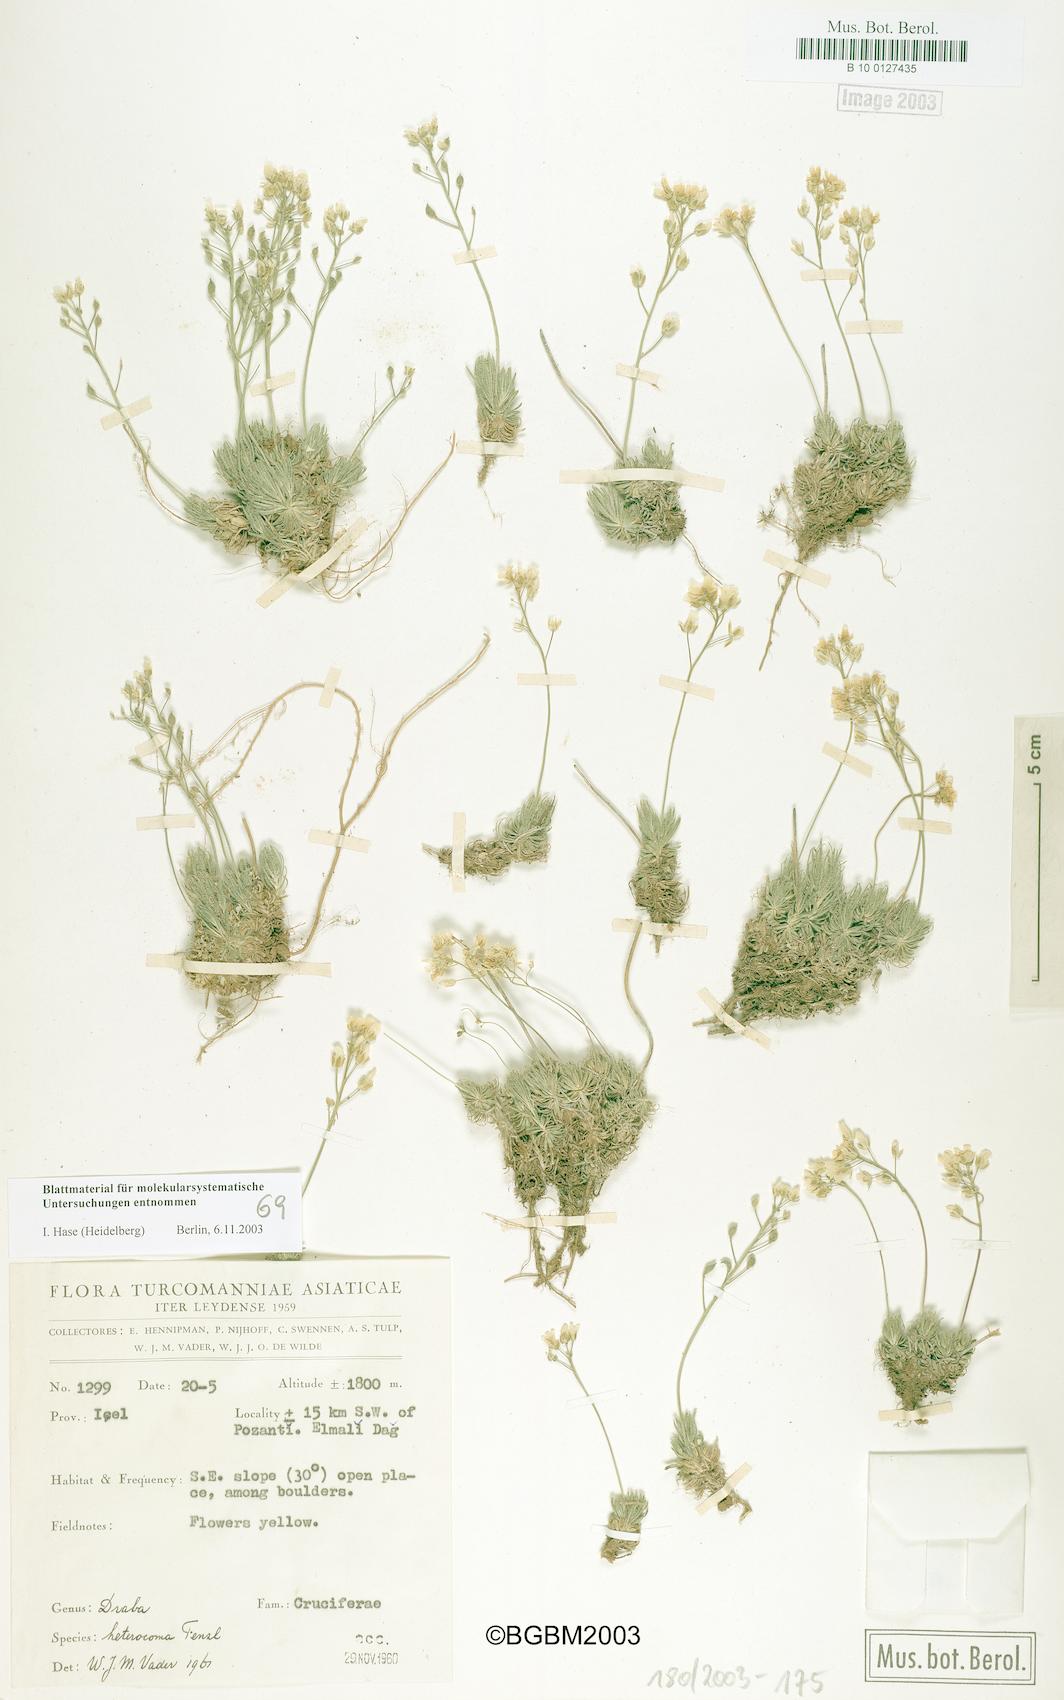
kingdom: Plantae
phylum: Tracheophyta
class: Magnoliopsida
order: Brassicales
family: Brassicaceae
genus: Draba
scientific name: Draba heterocoma
